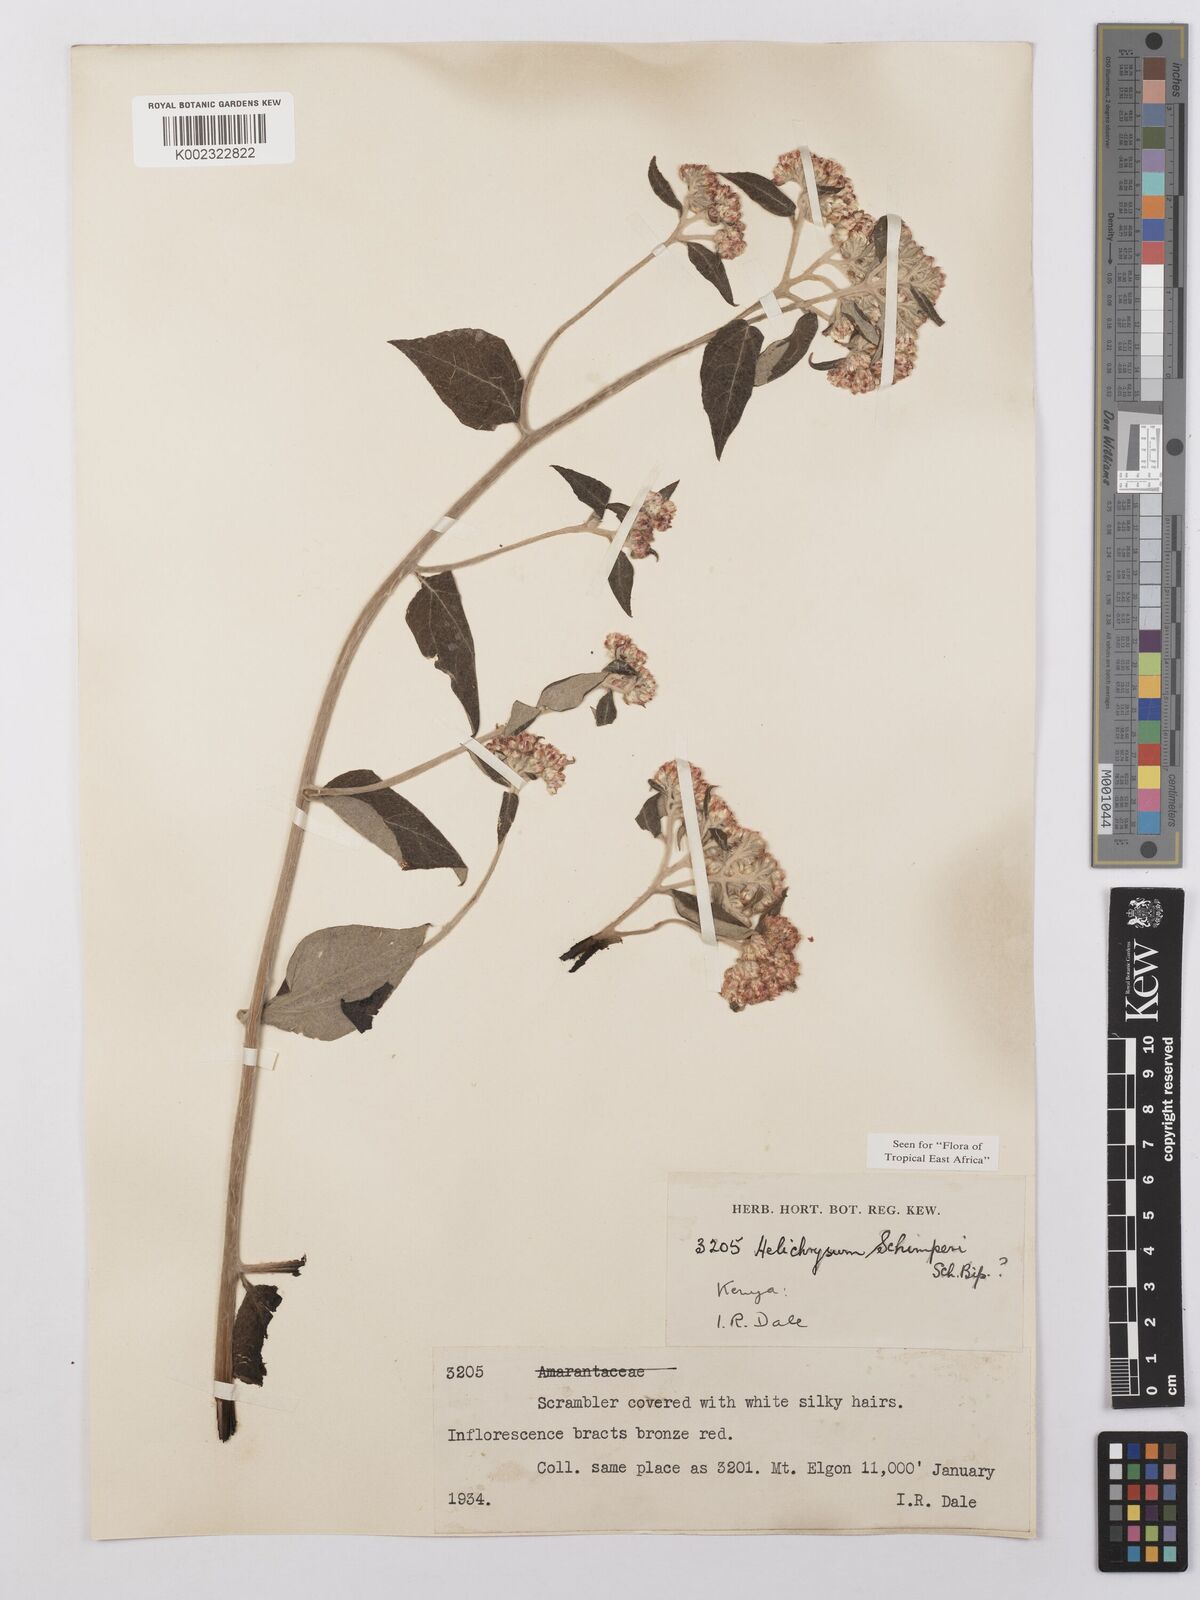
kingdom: Plantae
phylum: Tracheophyta
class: Magnoliopsida
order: Asterales
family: Asteraceae
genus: Helichrysum
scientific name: Helichrysum schimperi
